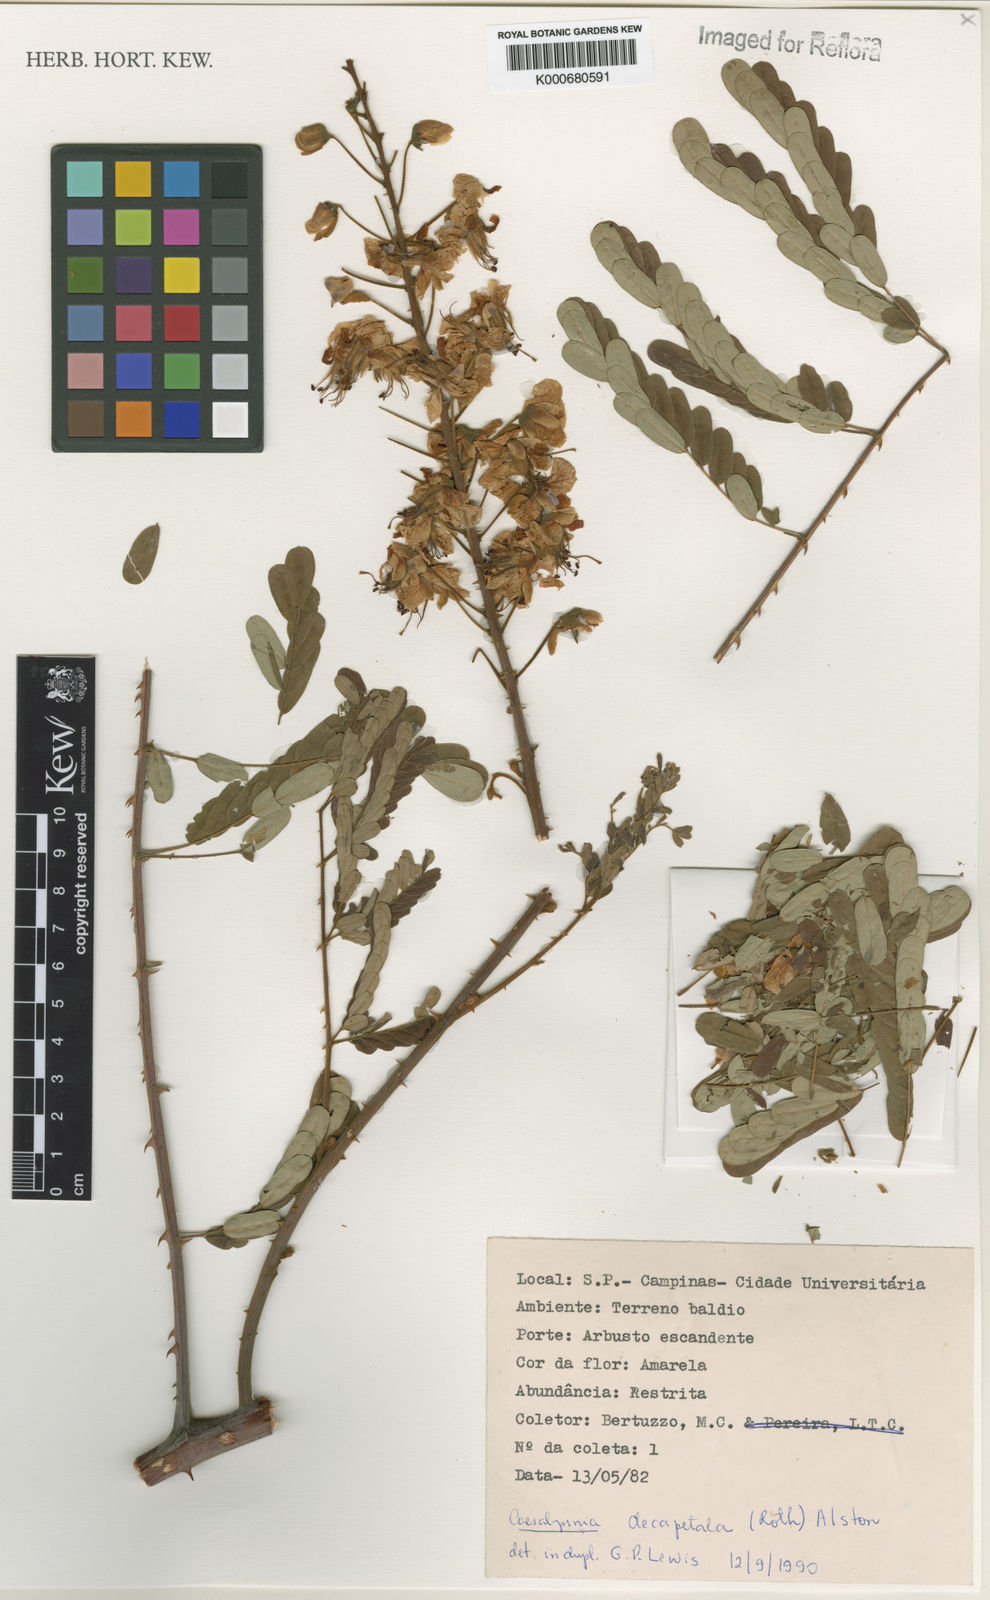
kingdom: Plantae
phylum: Tracheophyta
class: Magnoliopsida
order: Fabales
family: Fabaceae
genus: Biancaea
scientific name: Biancaea decapetala
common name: Cat's claw
